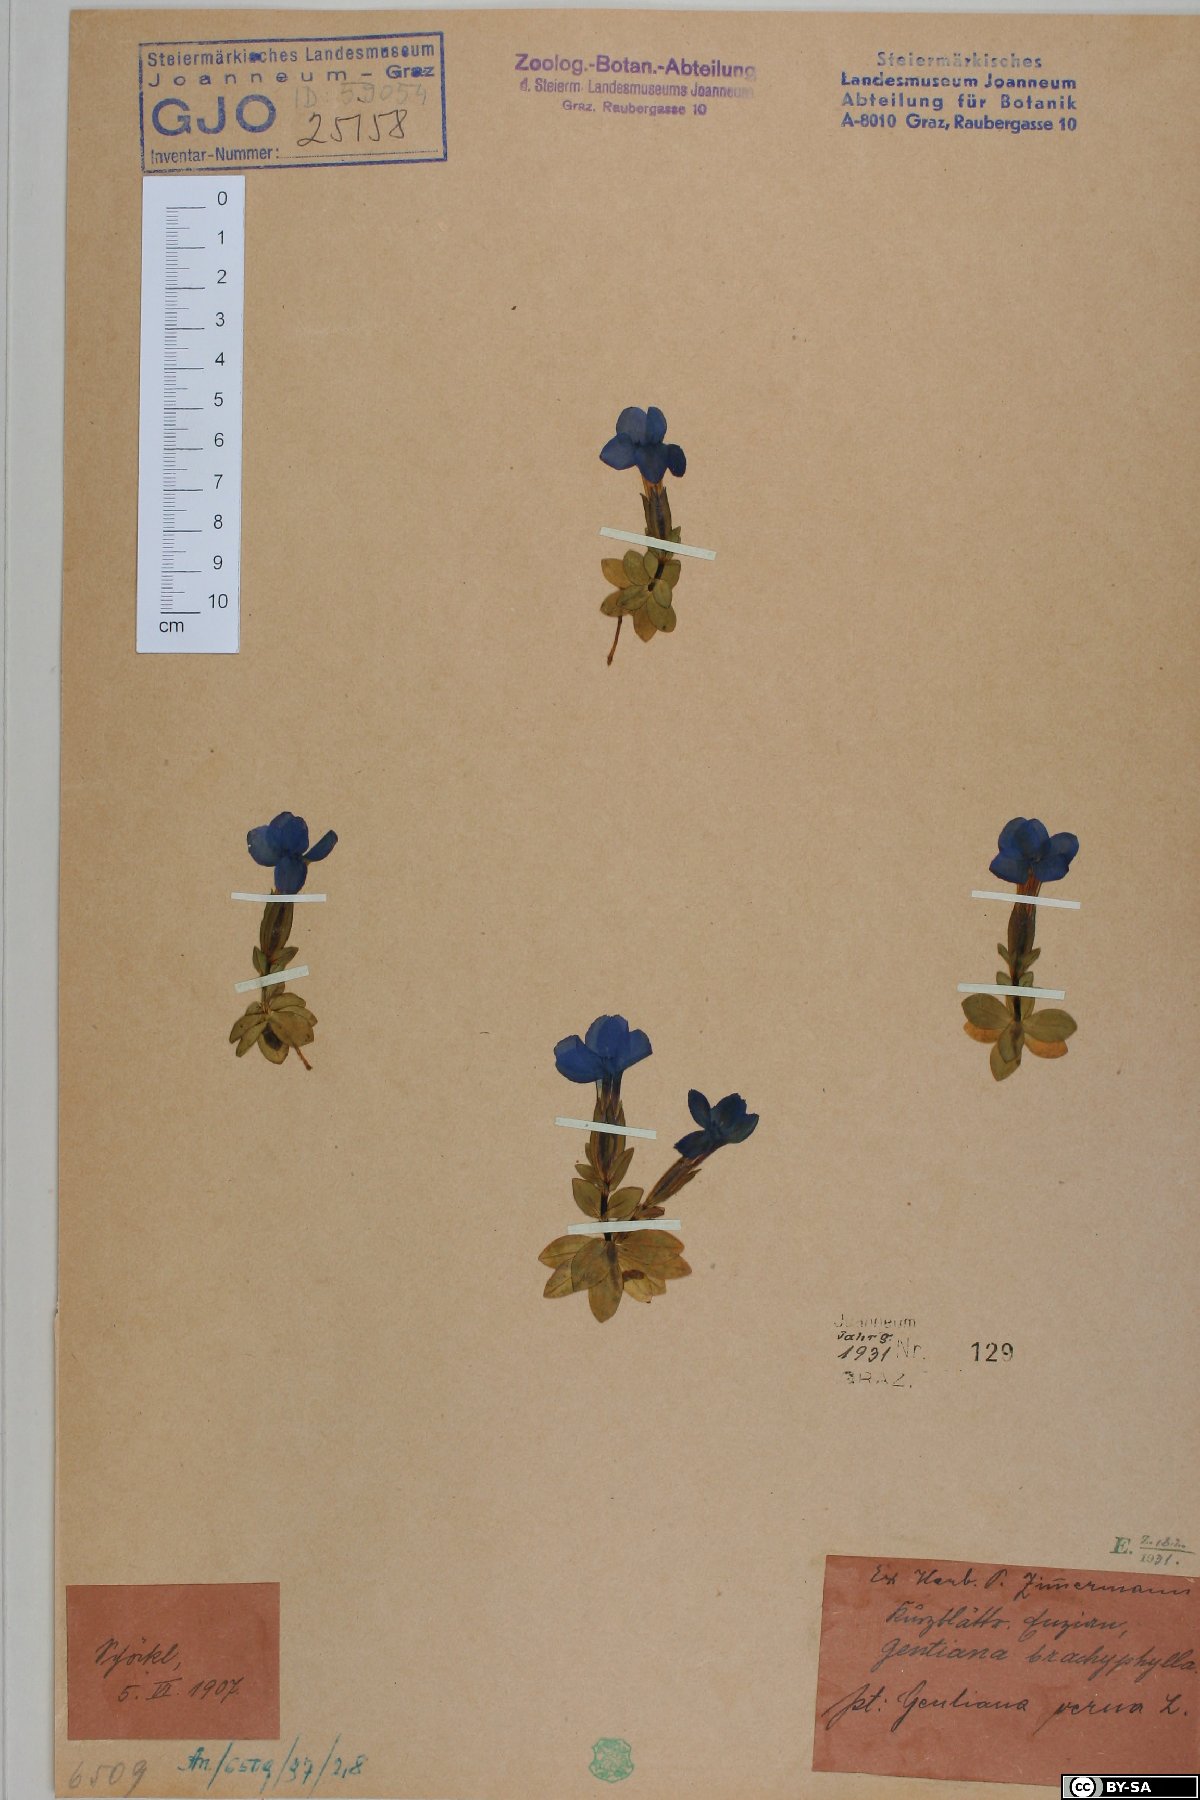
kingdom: Plantae
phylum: Tracheophyta
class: Magnoliopsida
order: Gentianales
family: Gentianaceae
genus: Gentiana
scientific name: Gentiana verna
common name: Spring gentian
